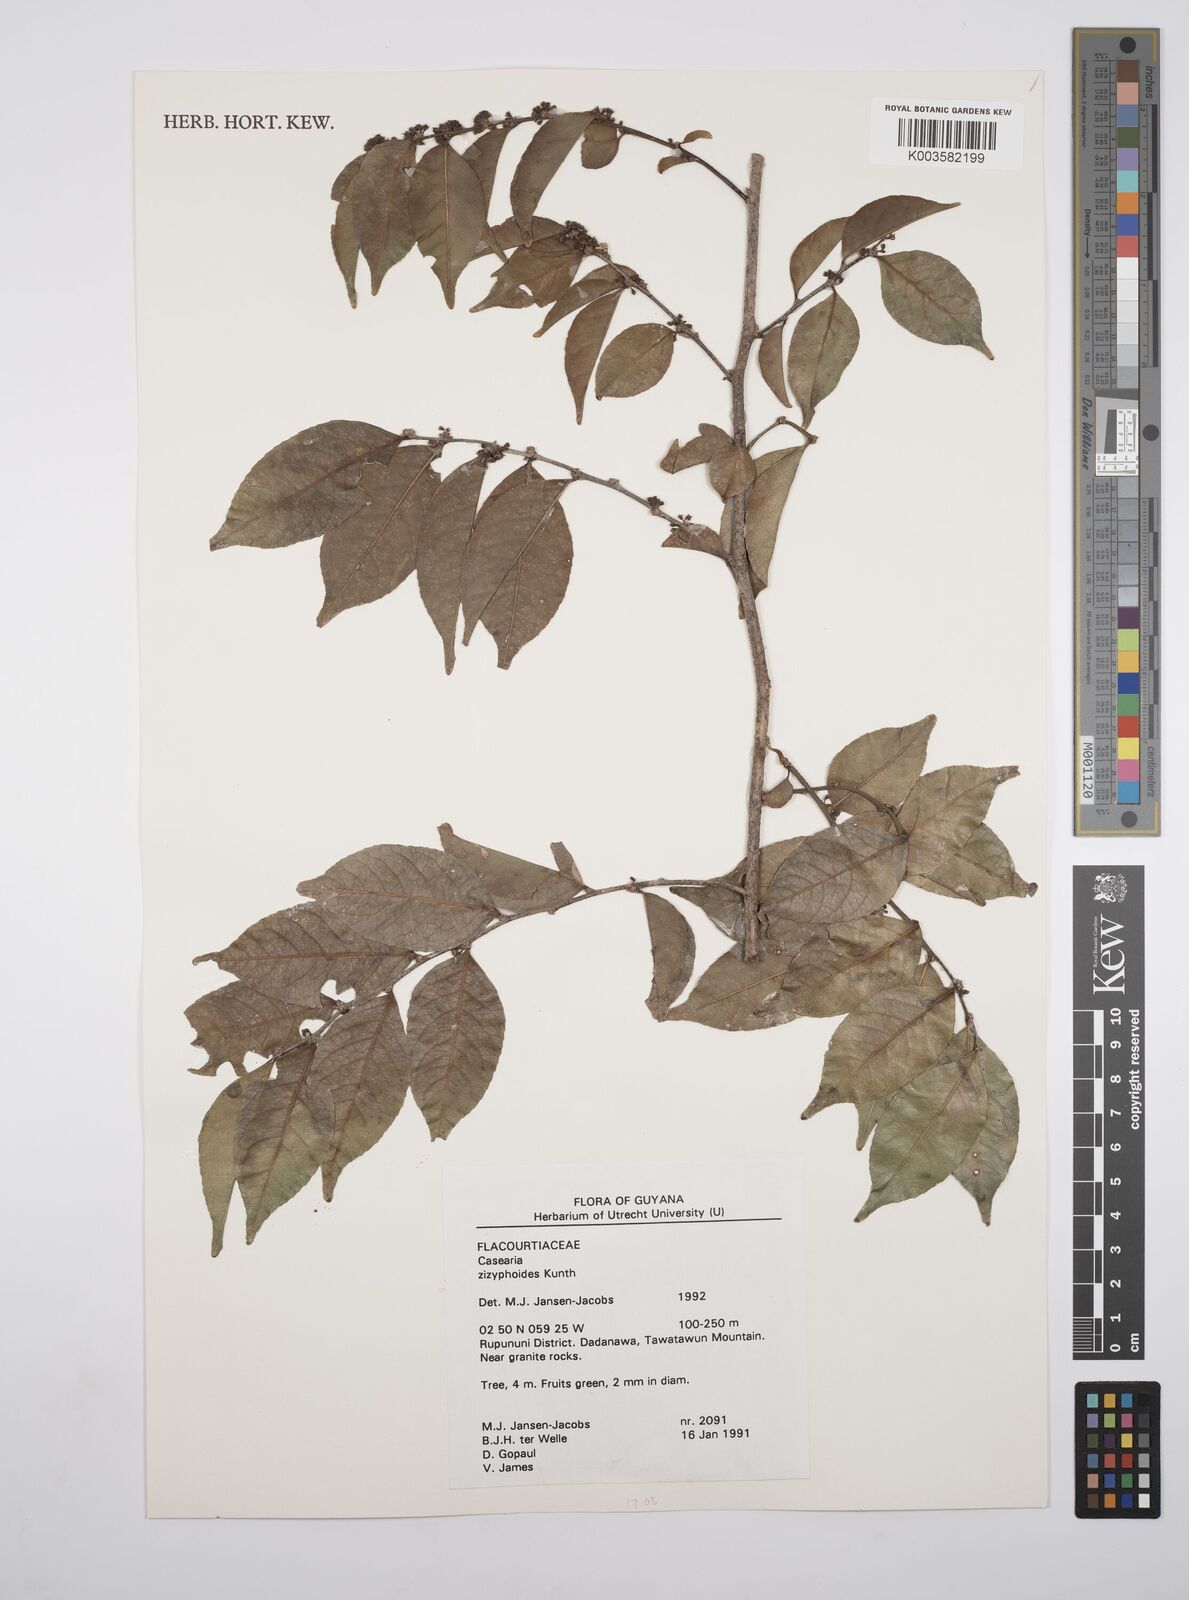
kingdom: Plantae
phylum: Tracheophyta
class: Magnoliopsida
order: Malpighiales
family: Salicaceae
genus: Casearia
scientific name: Casearia zizyphoides
